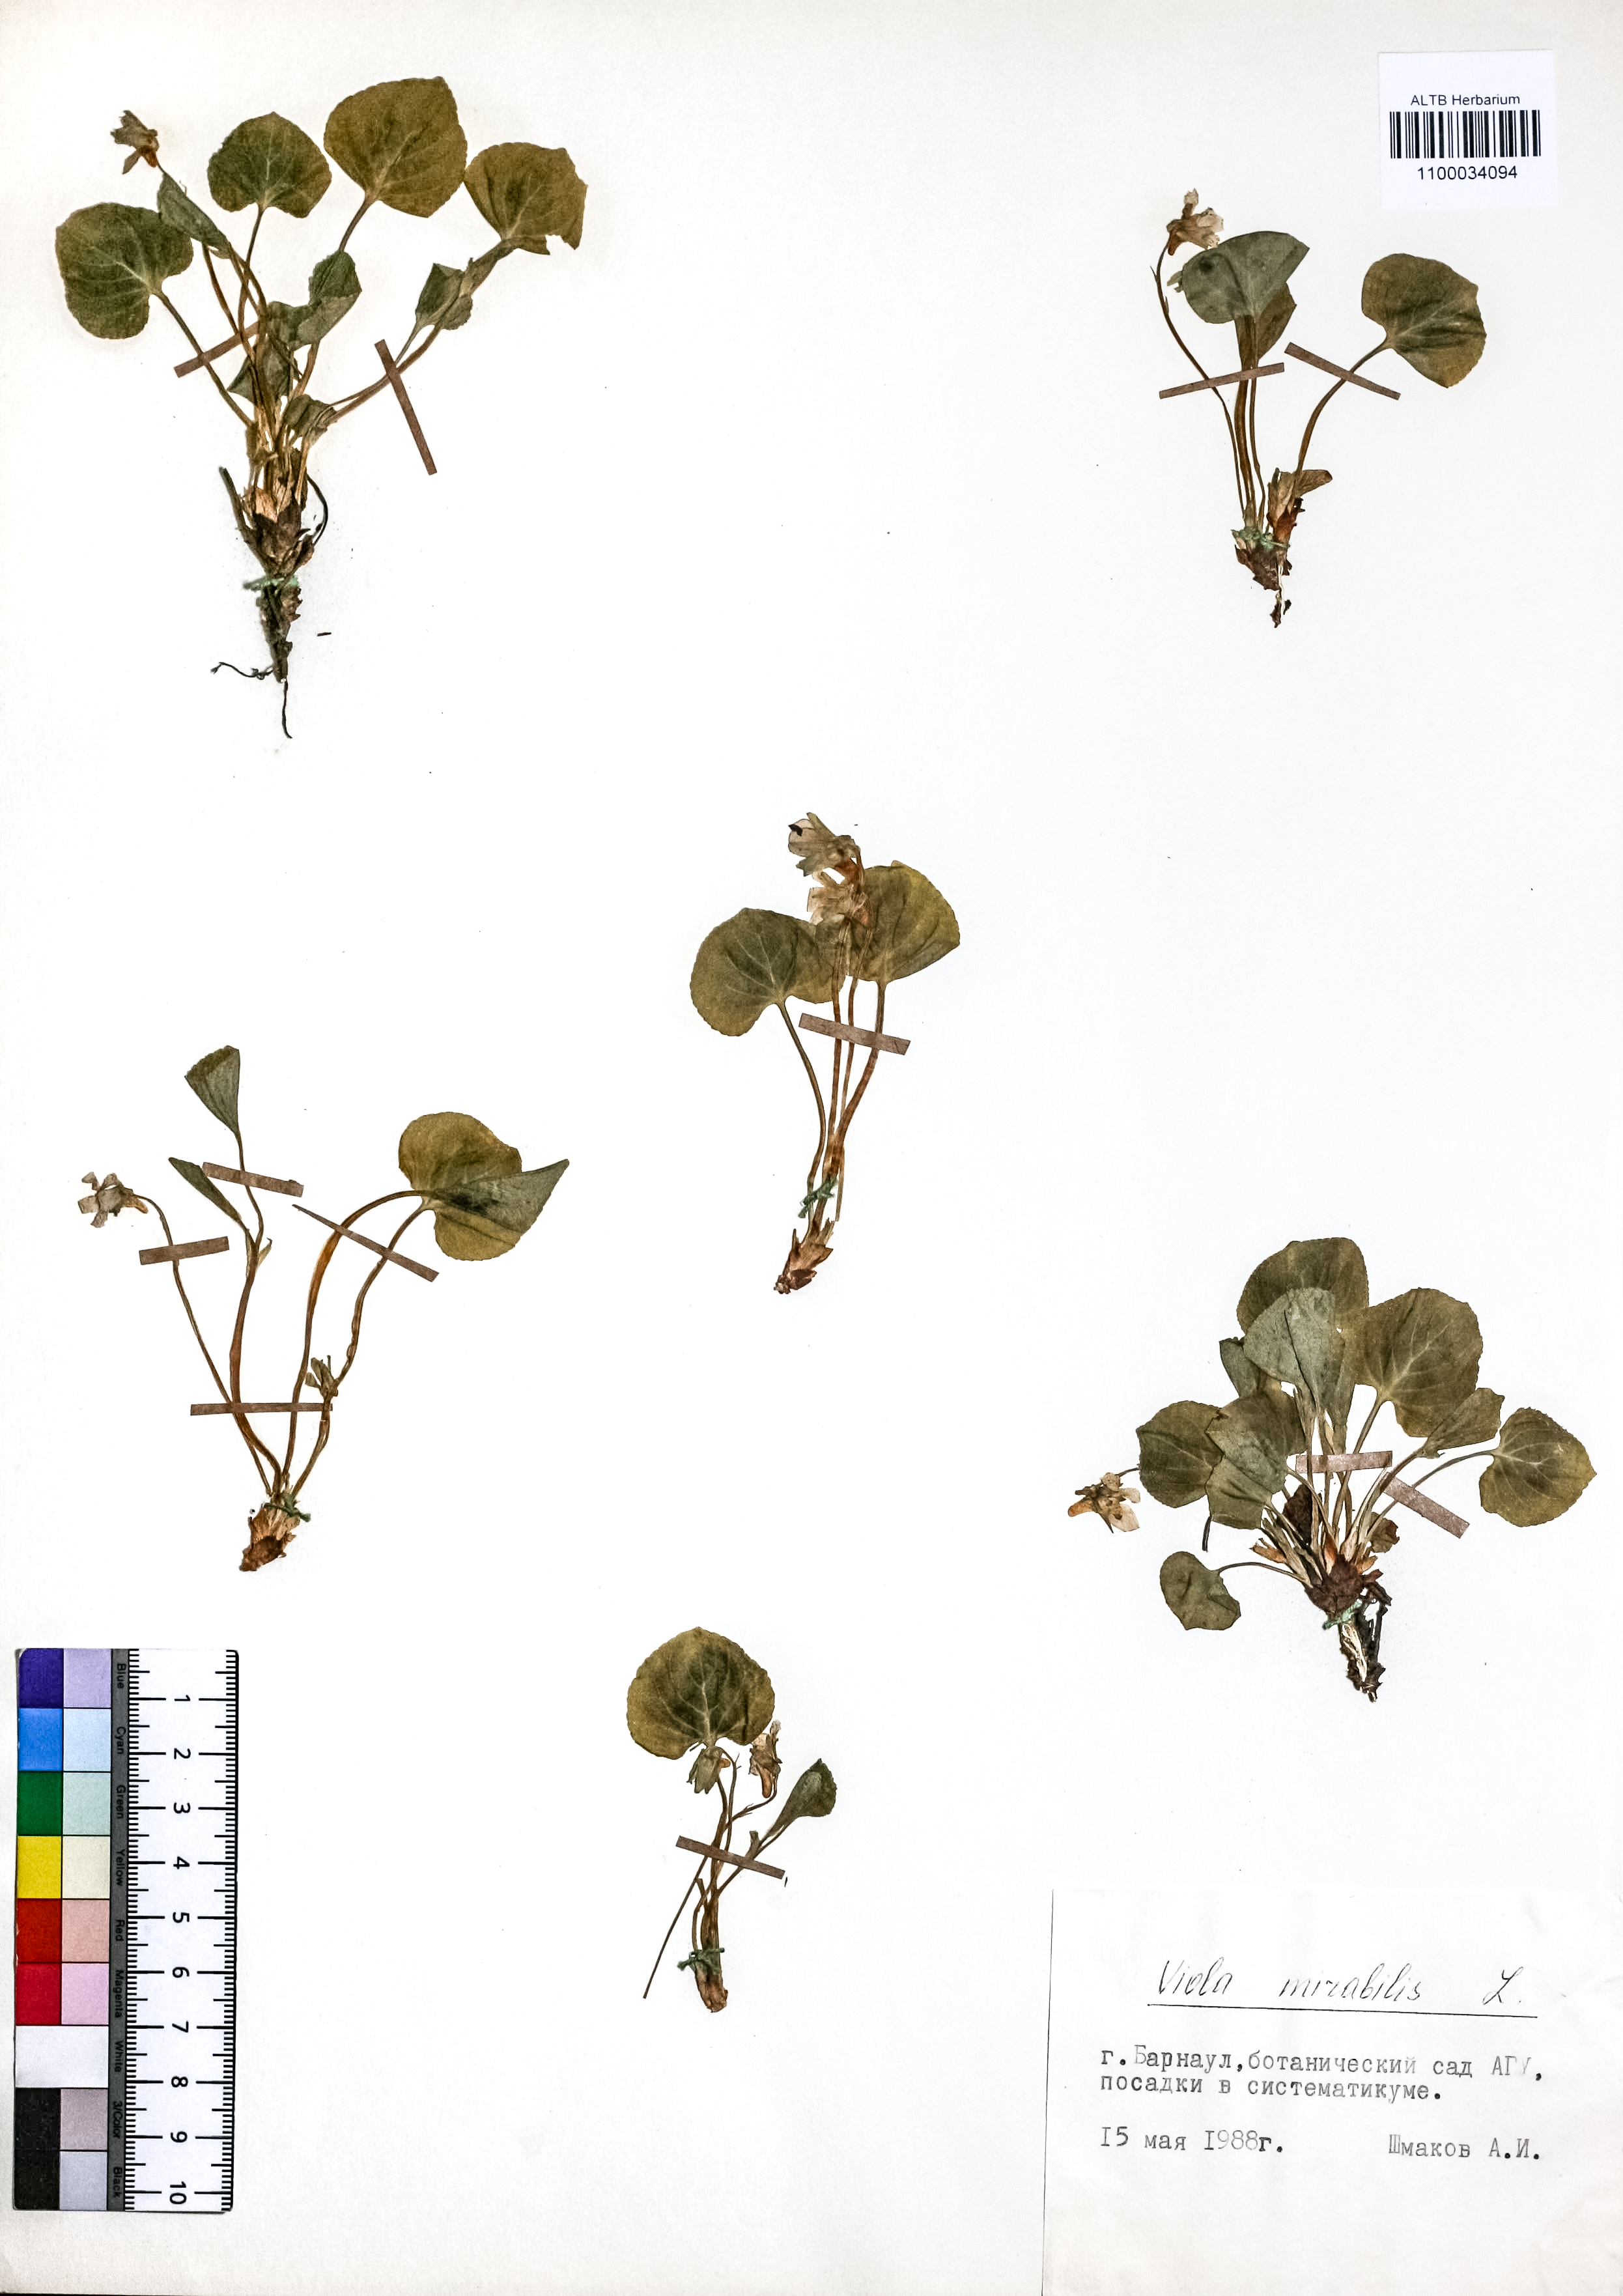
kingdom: Plantae
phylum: Tracheophyta
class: Magnoliopsida
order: Malpighiales
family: Violaceae
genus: Viola
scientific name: Viola mirabilis
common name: Wonder violet
